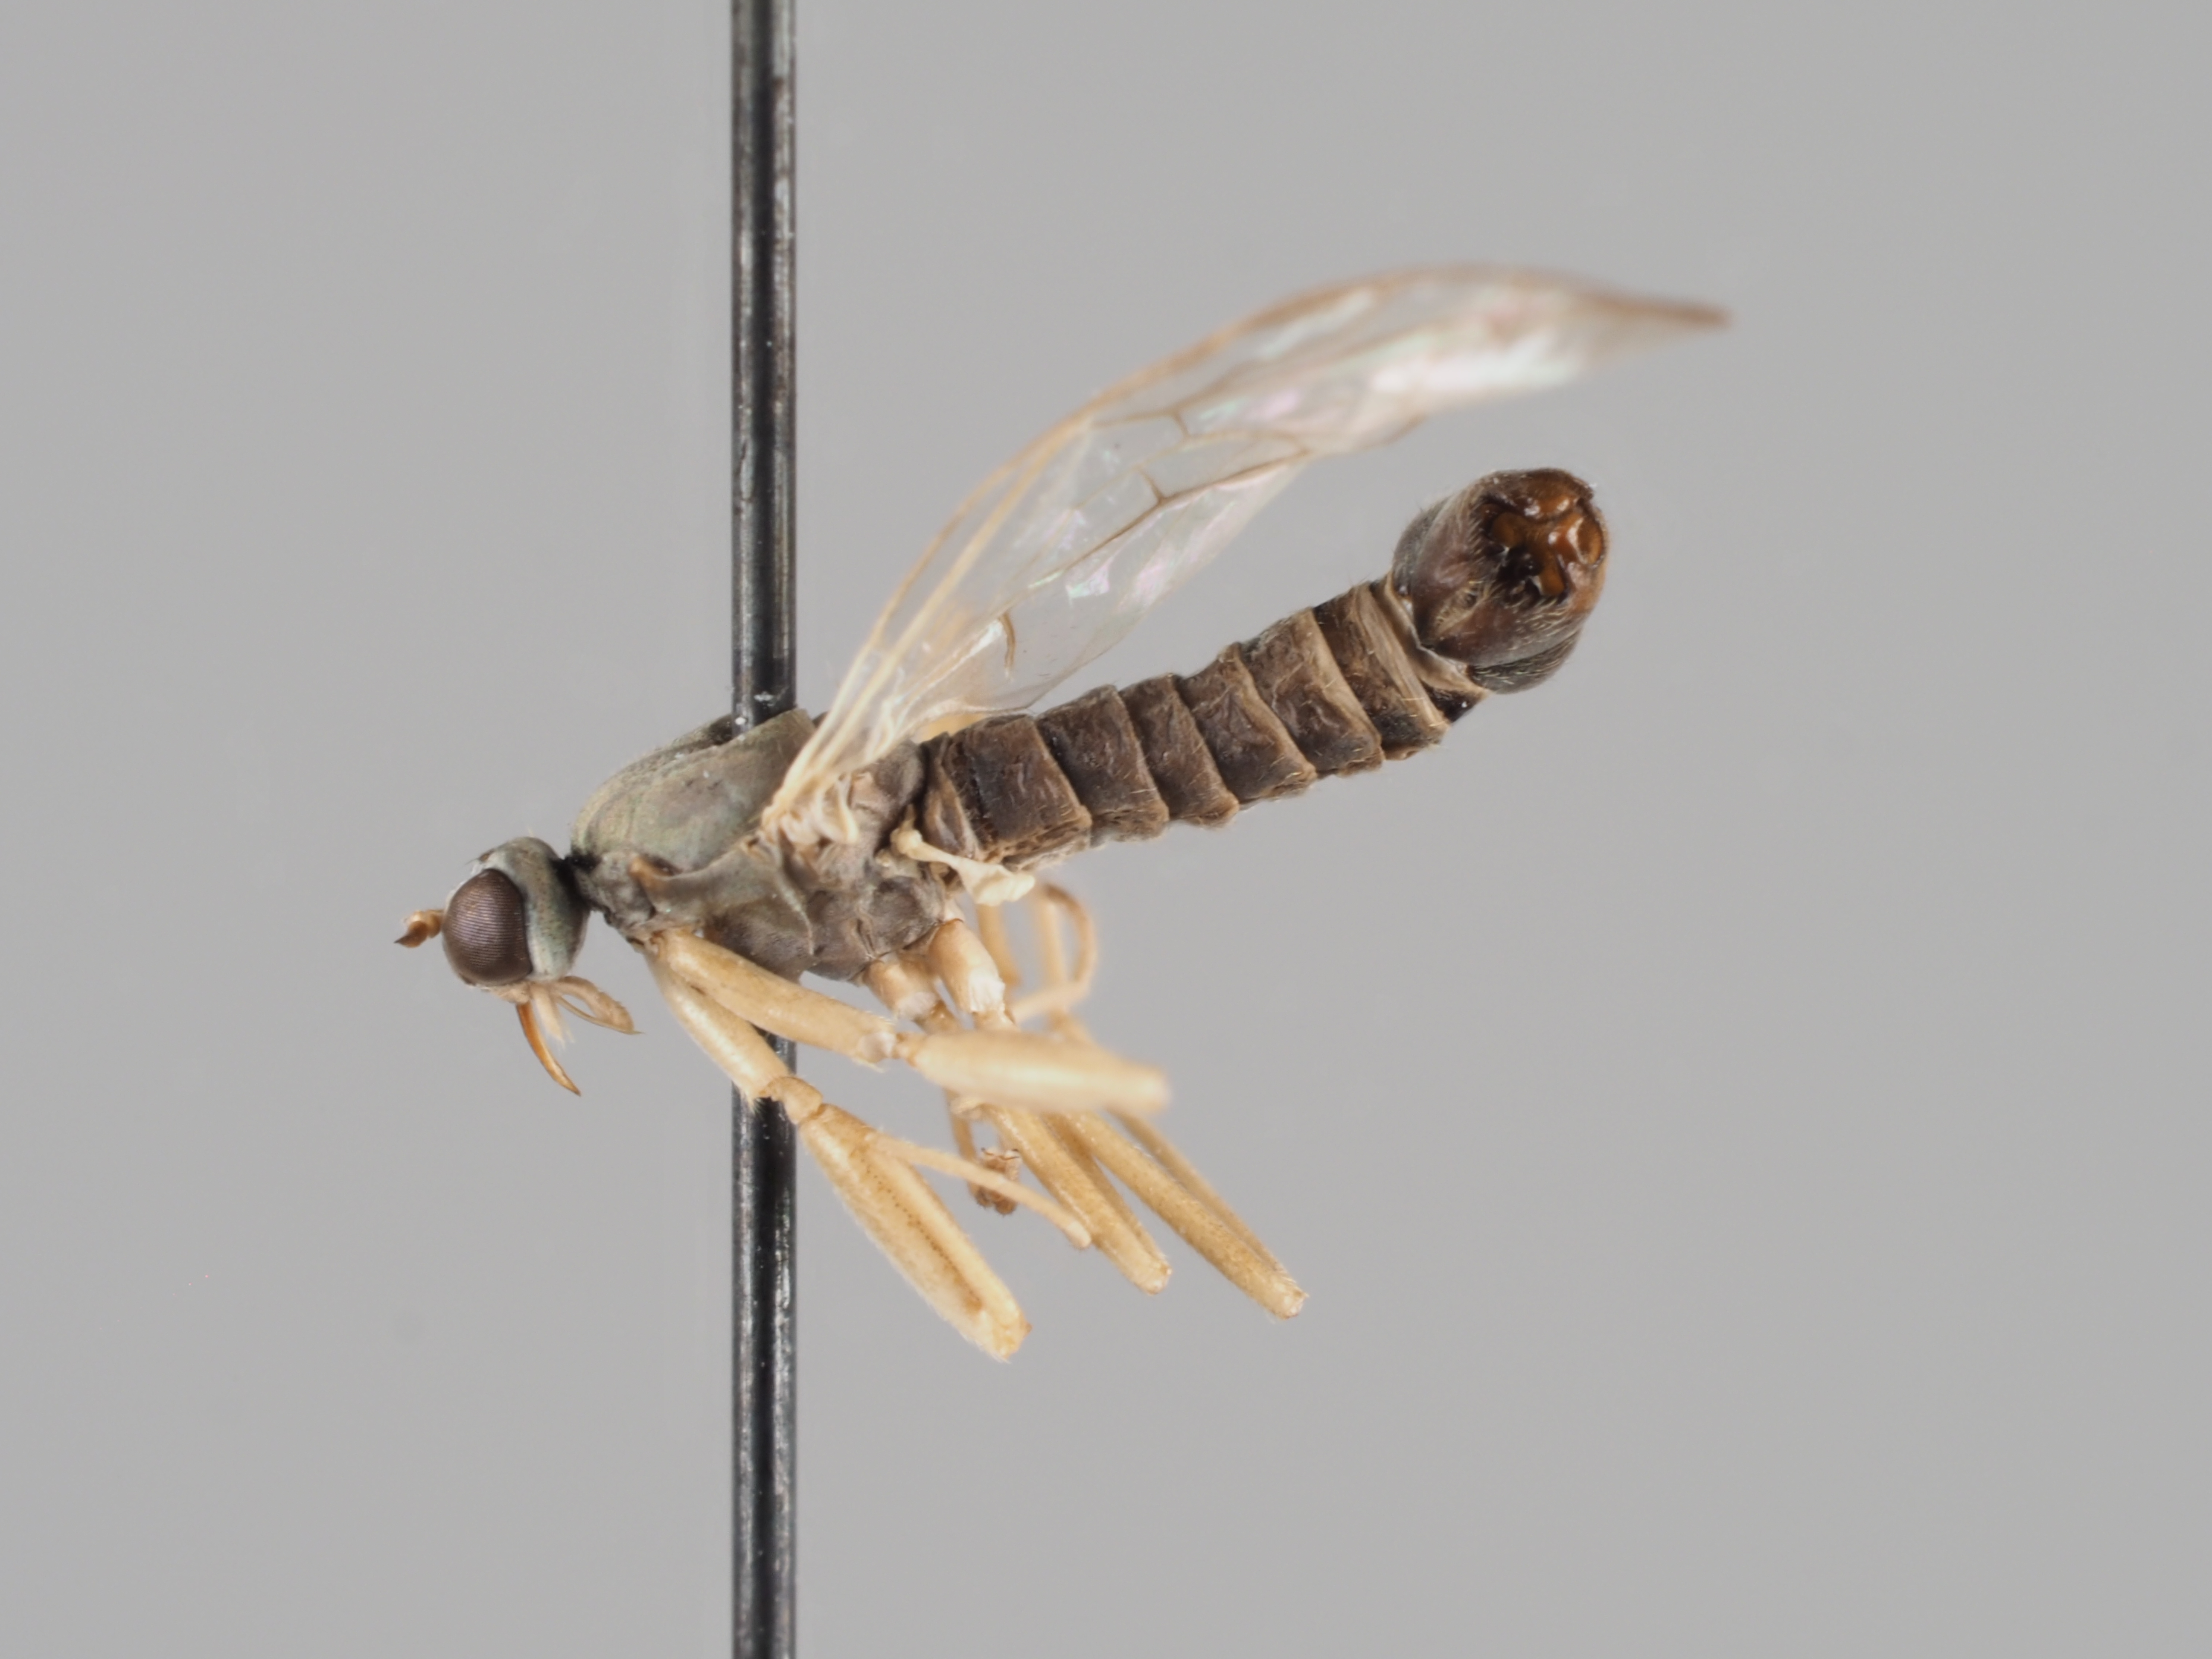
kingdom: Animalia
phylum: Arthropoda
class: Insecta
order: Diptera
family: Empididae
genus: Chelifera
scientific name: Chelifera frigelii
